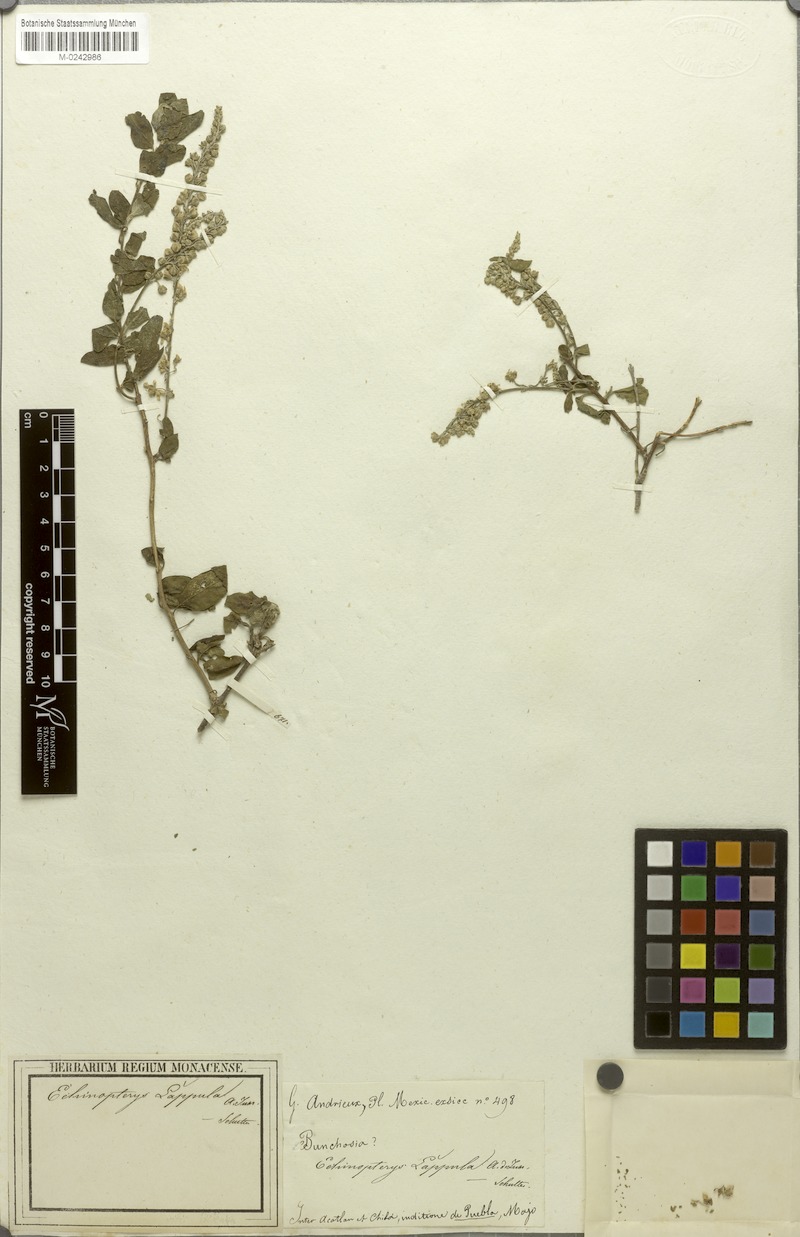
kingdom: Plantae
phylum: Tracheophyta
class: Magnoliopsida
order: Malpighiales
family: Malpighiaceae
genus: Echinopterys
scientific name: Echinopterys eglandulosa
